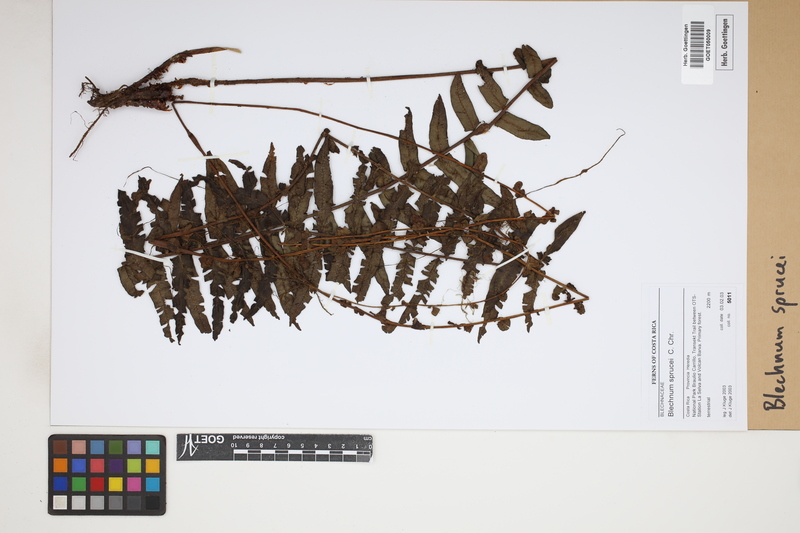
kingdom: Plantae
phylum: Tracheophyta
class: Polypodiopsida
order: Polypodiales
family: Blechnaceae
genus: Cranfillia
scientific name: Cranfillia caudata
